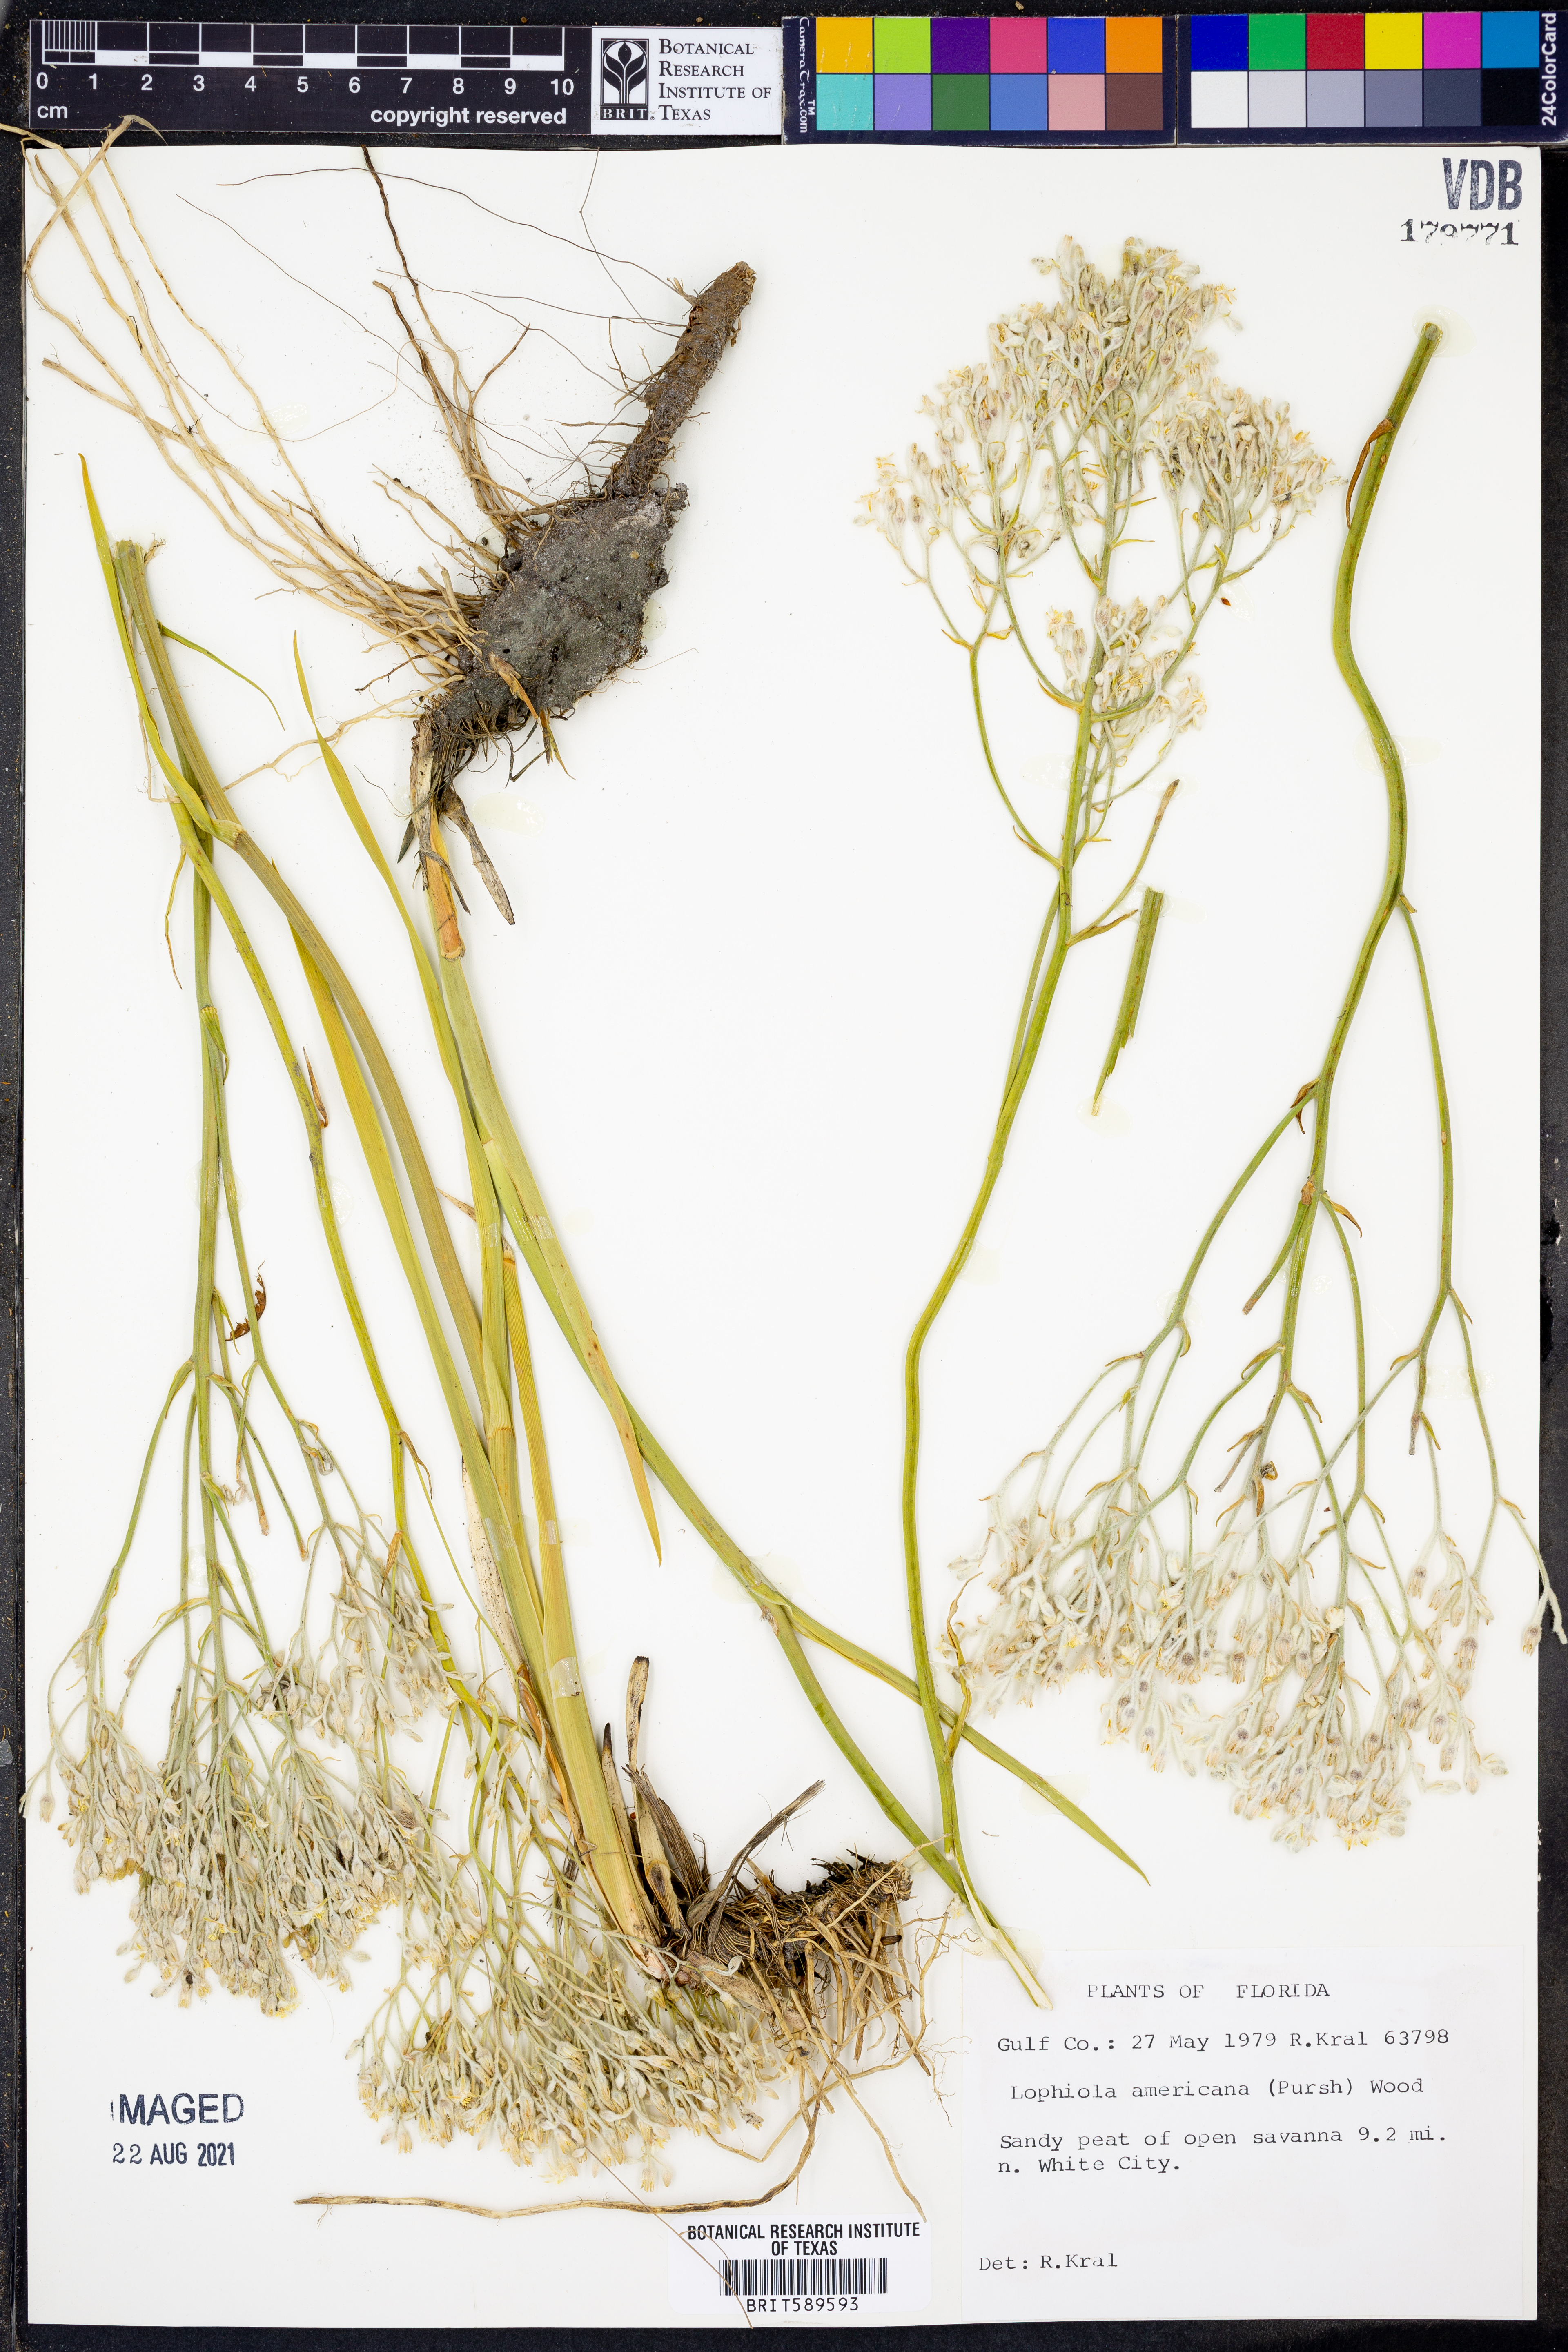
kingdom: Plantae
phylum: Tracheophyta
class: Liliopsida
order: Dioscoreales
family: Nartheciaceae
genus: Lophiola
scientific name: Lophiola aurea
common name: Golden-crest
